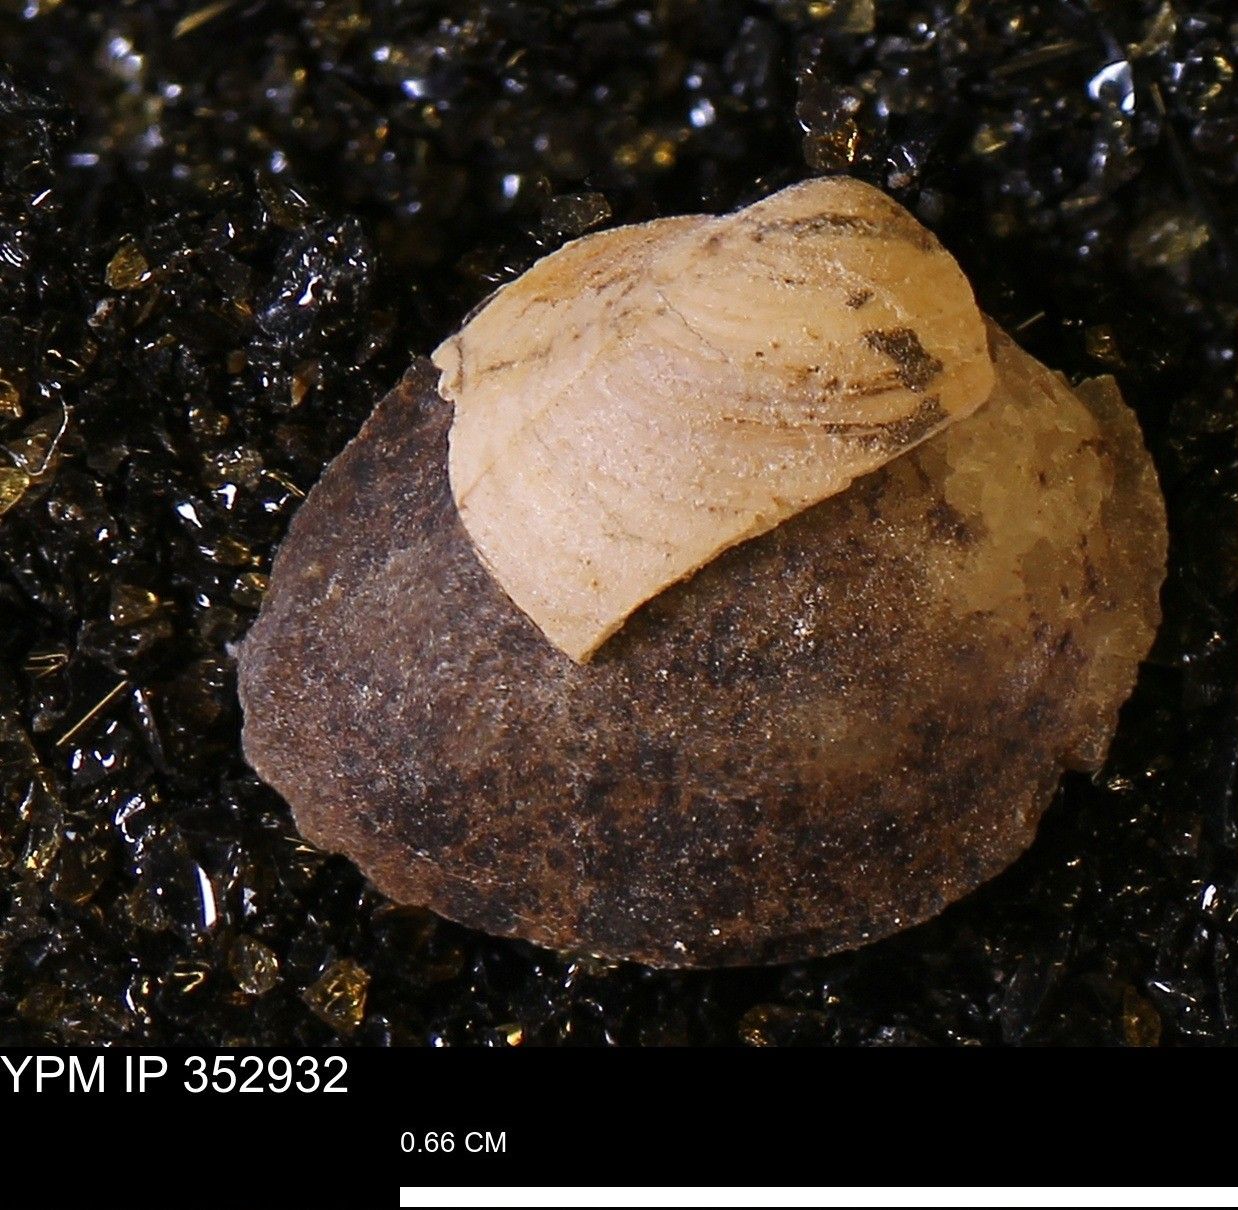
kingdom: Animalia
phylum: Mollusca
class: Bivalvia
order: Arcida
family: Limopsidae
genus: Limopsis
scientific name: Limopsis
